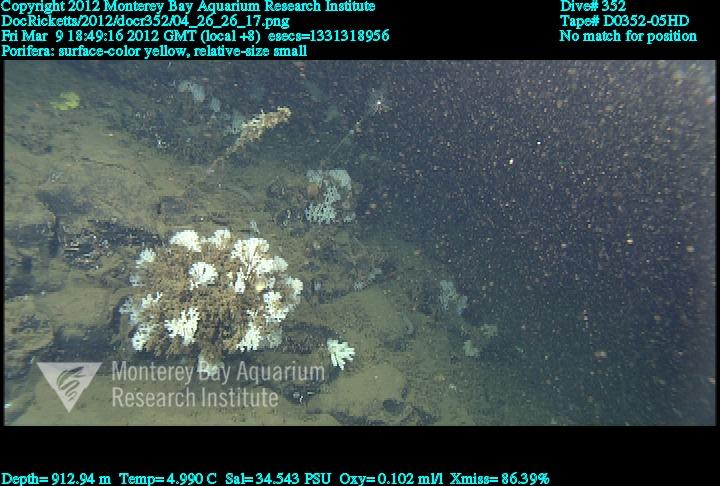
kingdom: Animalia
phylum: Porifera
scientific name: Porifera
